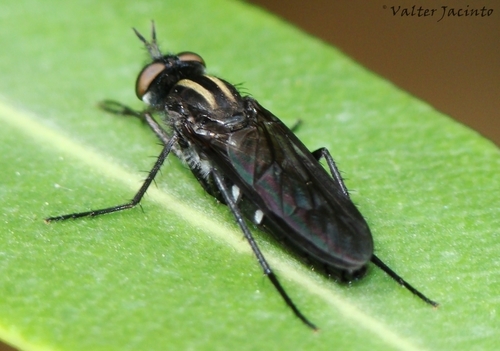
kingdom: Animalia
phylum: Arthropoda
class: Insecta
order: Diptera
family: Therevidae
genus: Thereva
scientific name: Thereva albovittata
